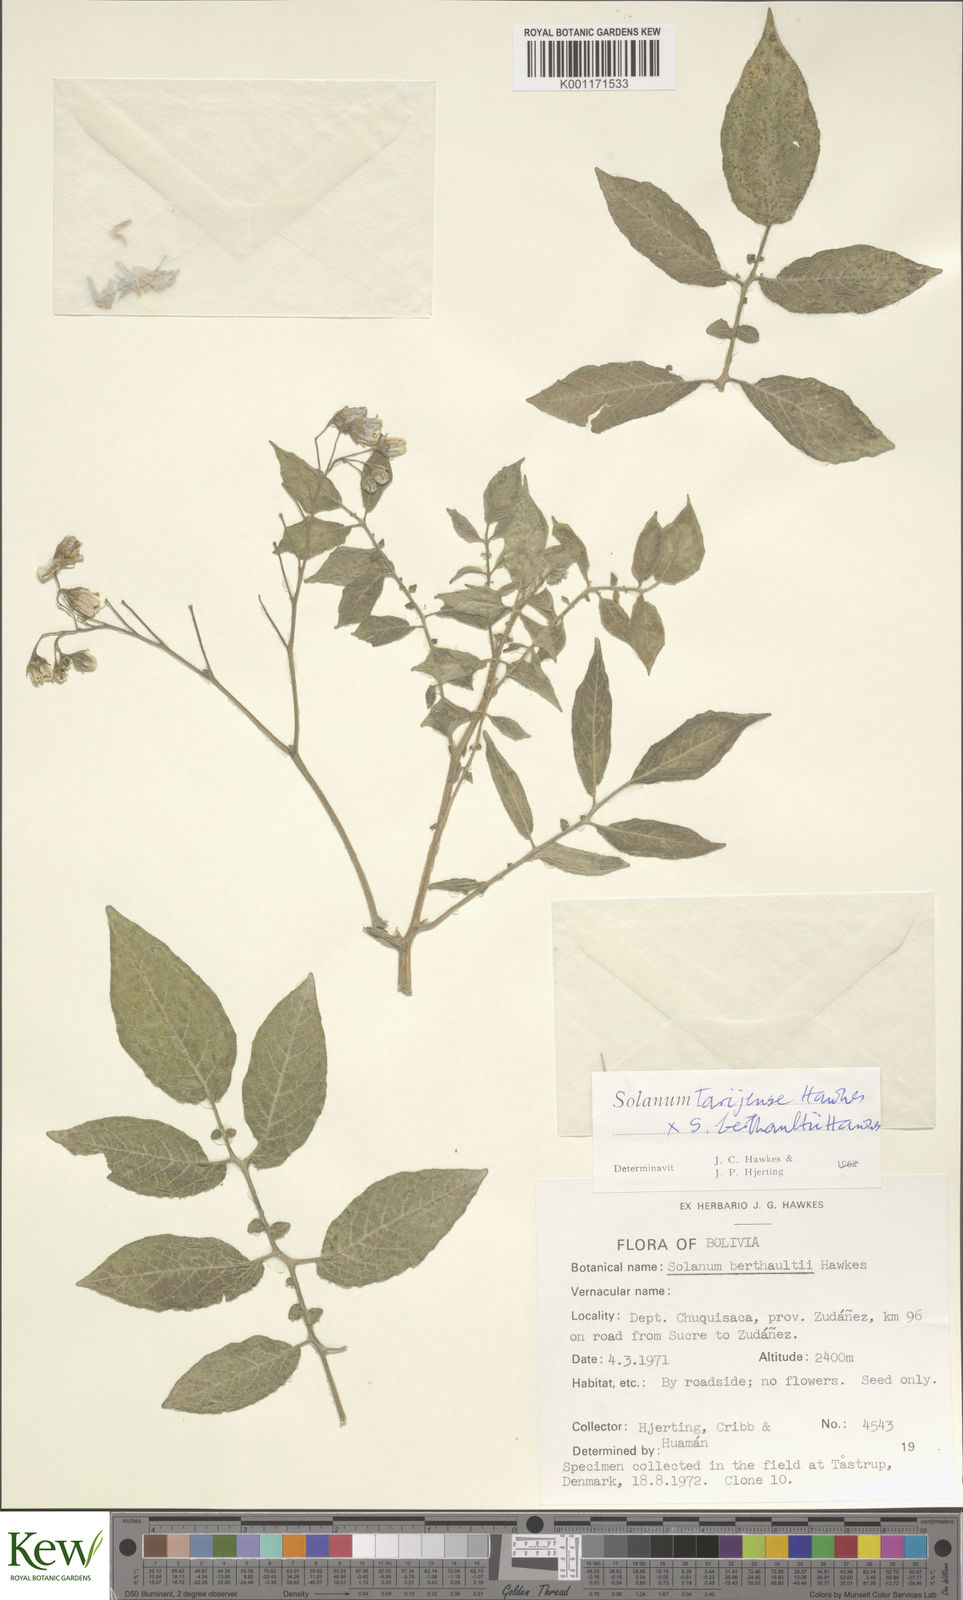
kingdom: Plantae
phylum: Tracheophyta
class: Magnoliopsida
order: Solanales
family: Solanaceae
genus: Solanum
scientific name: Solanum tarijense
